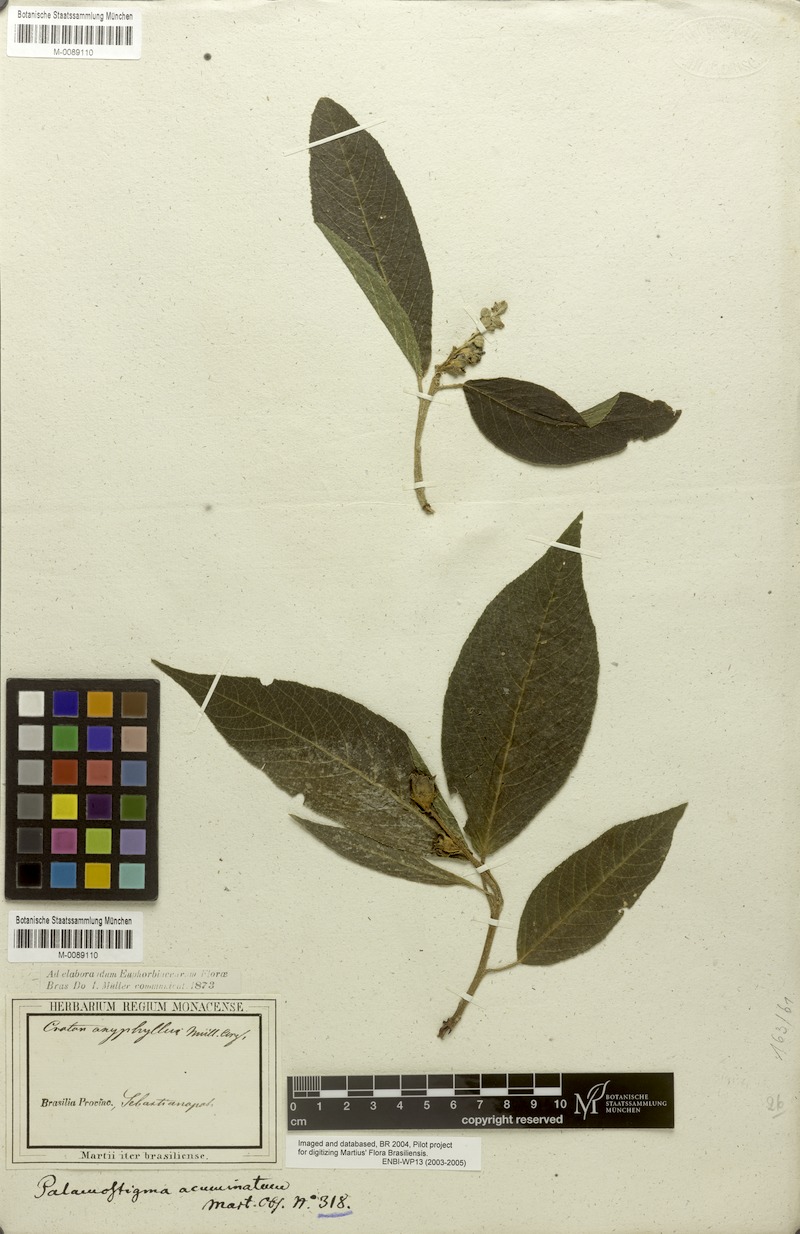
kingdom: Plantae
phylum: Tracheophyta
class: Magnoliopsida
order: Malpighiales
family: Euphorbiaceae
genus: Croton
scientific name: Croton organensis
